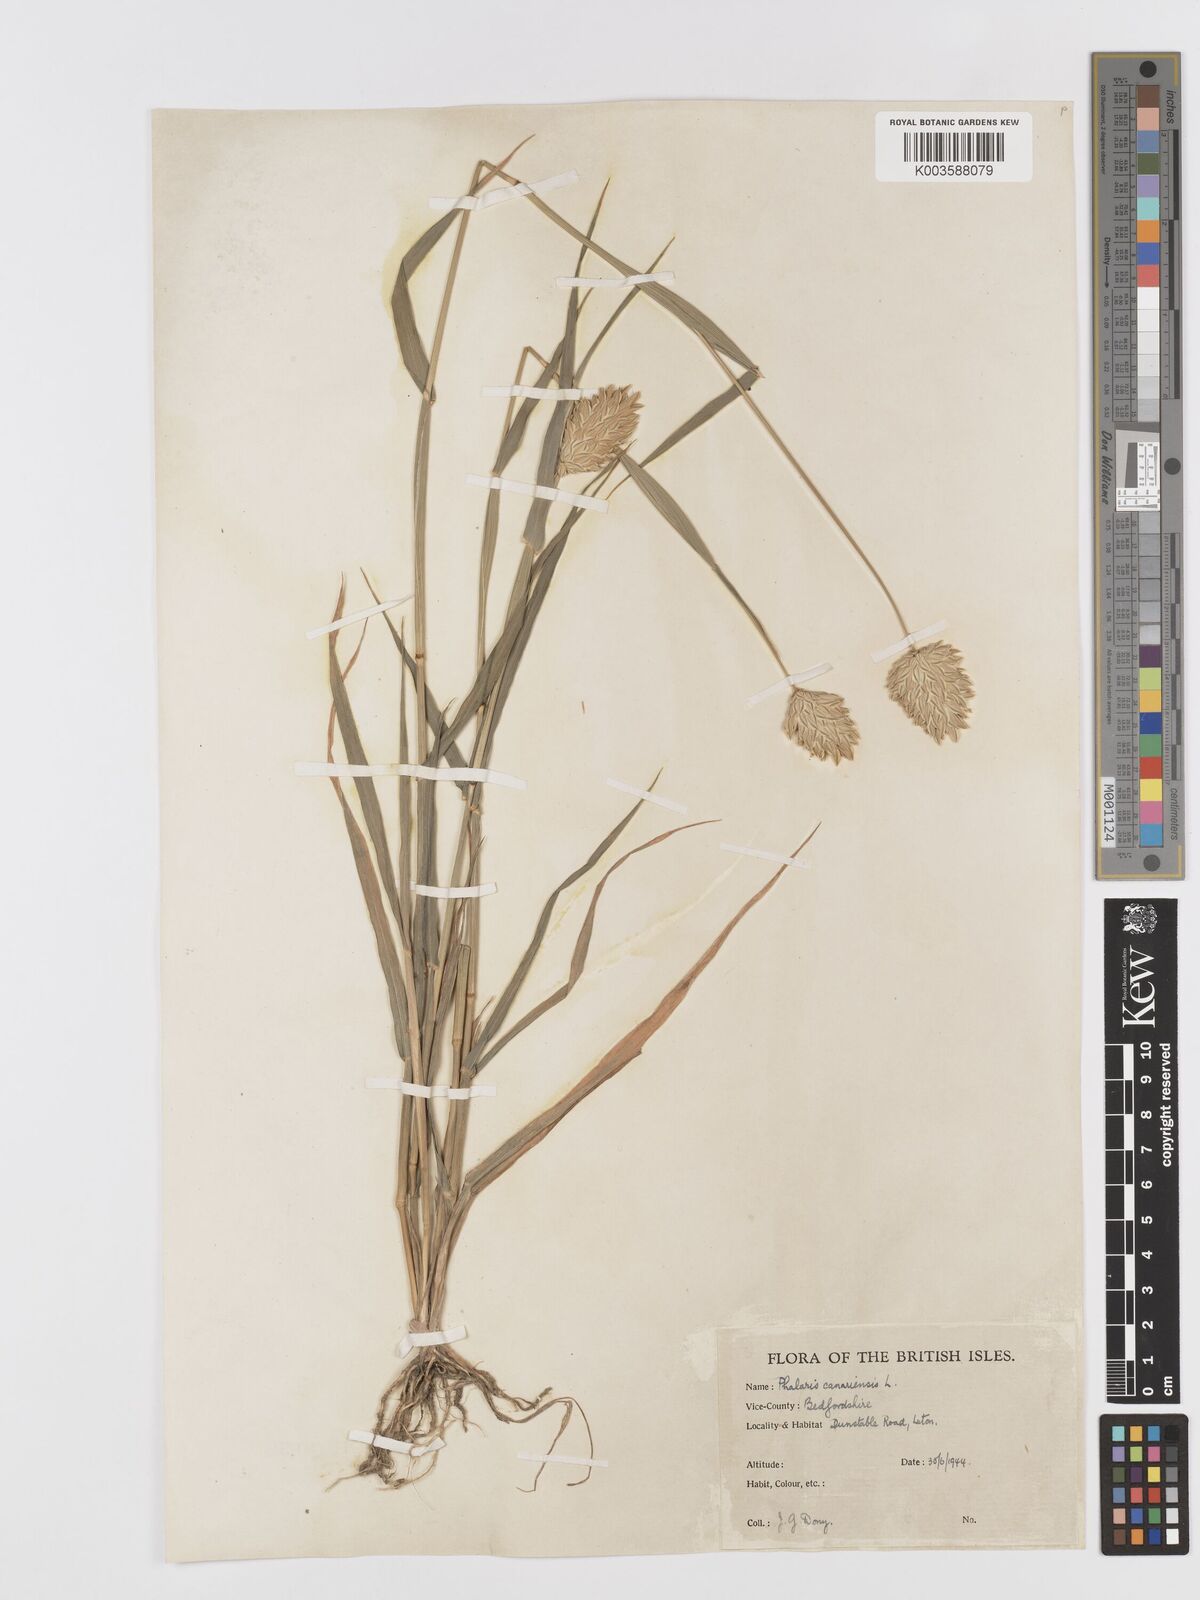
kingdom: Plantae
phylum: Tracheophyta
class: Liliopsida
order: Poales
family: Poaceae
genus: Phalaris
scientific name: Phalaris canariensis
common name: Annual canarygrass
